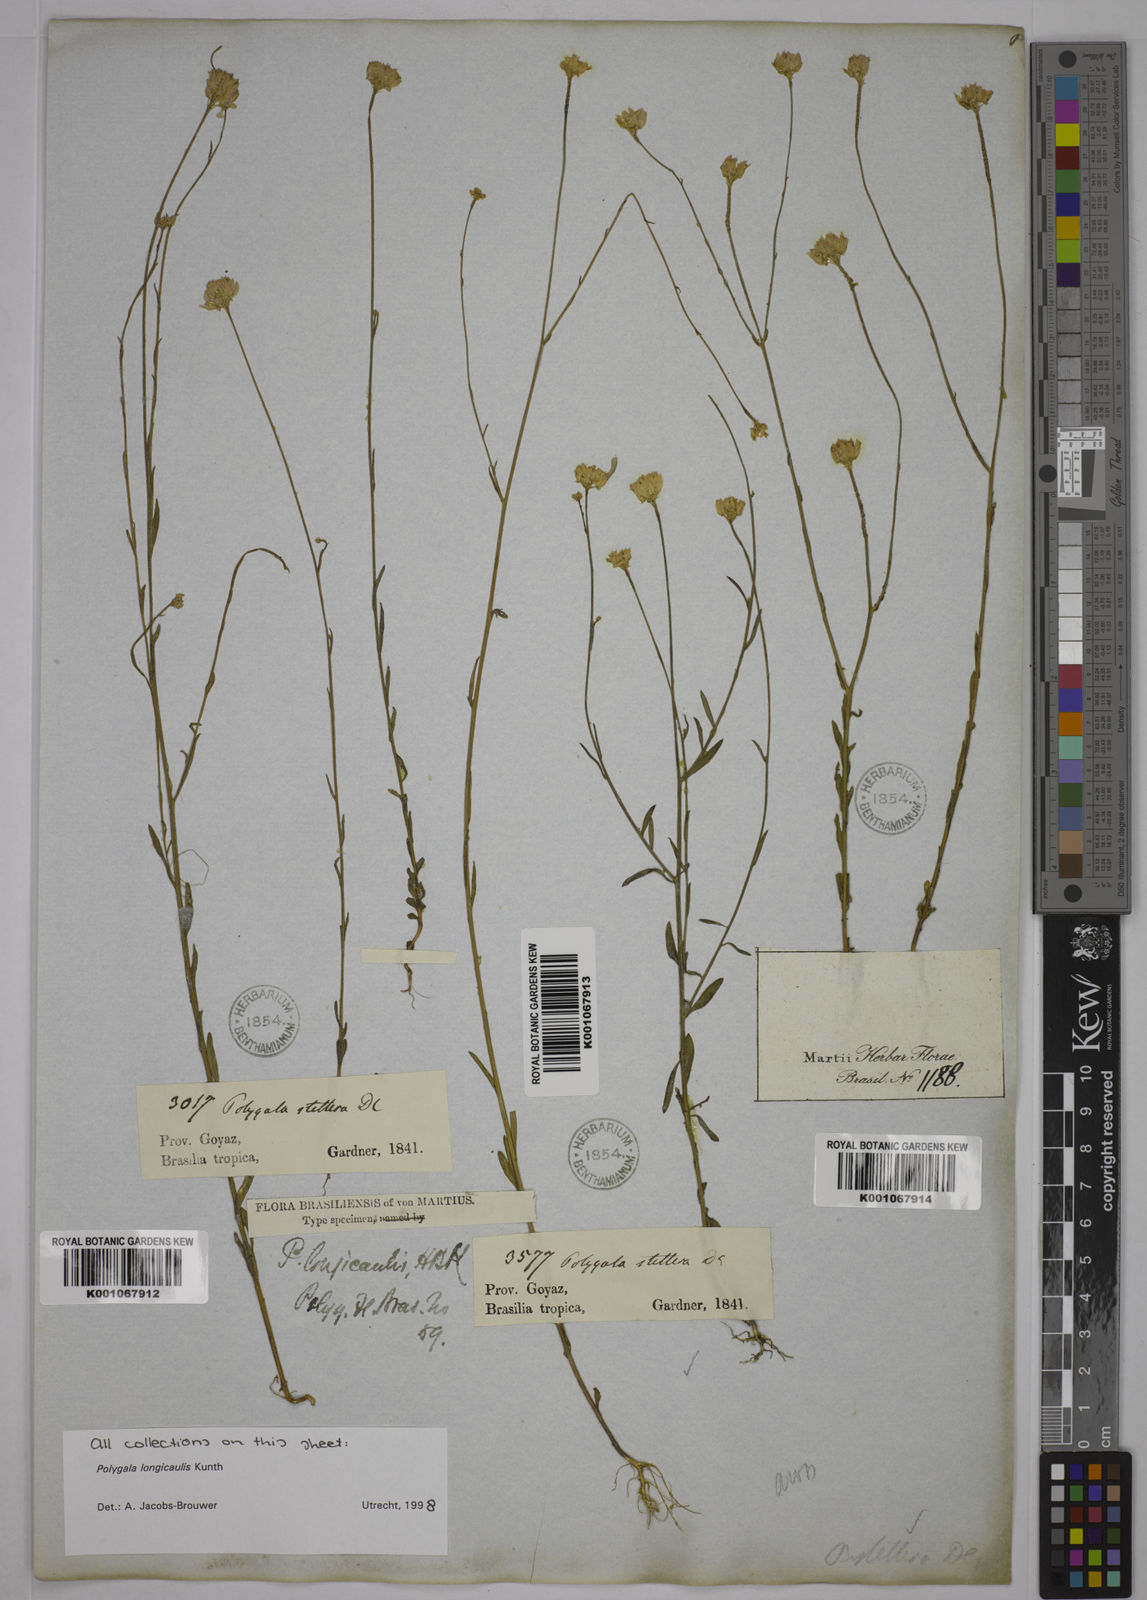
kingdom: Plantae
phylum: Tracheophyta
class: Magnoliopsida
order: Fabales
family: Polygalaceae
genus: Polygala
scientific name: Polygala longicaulis
